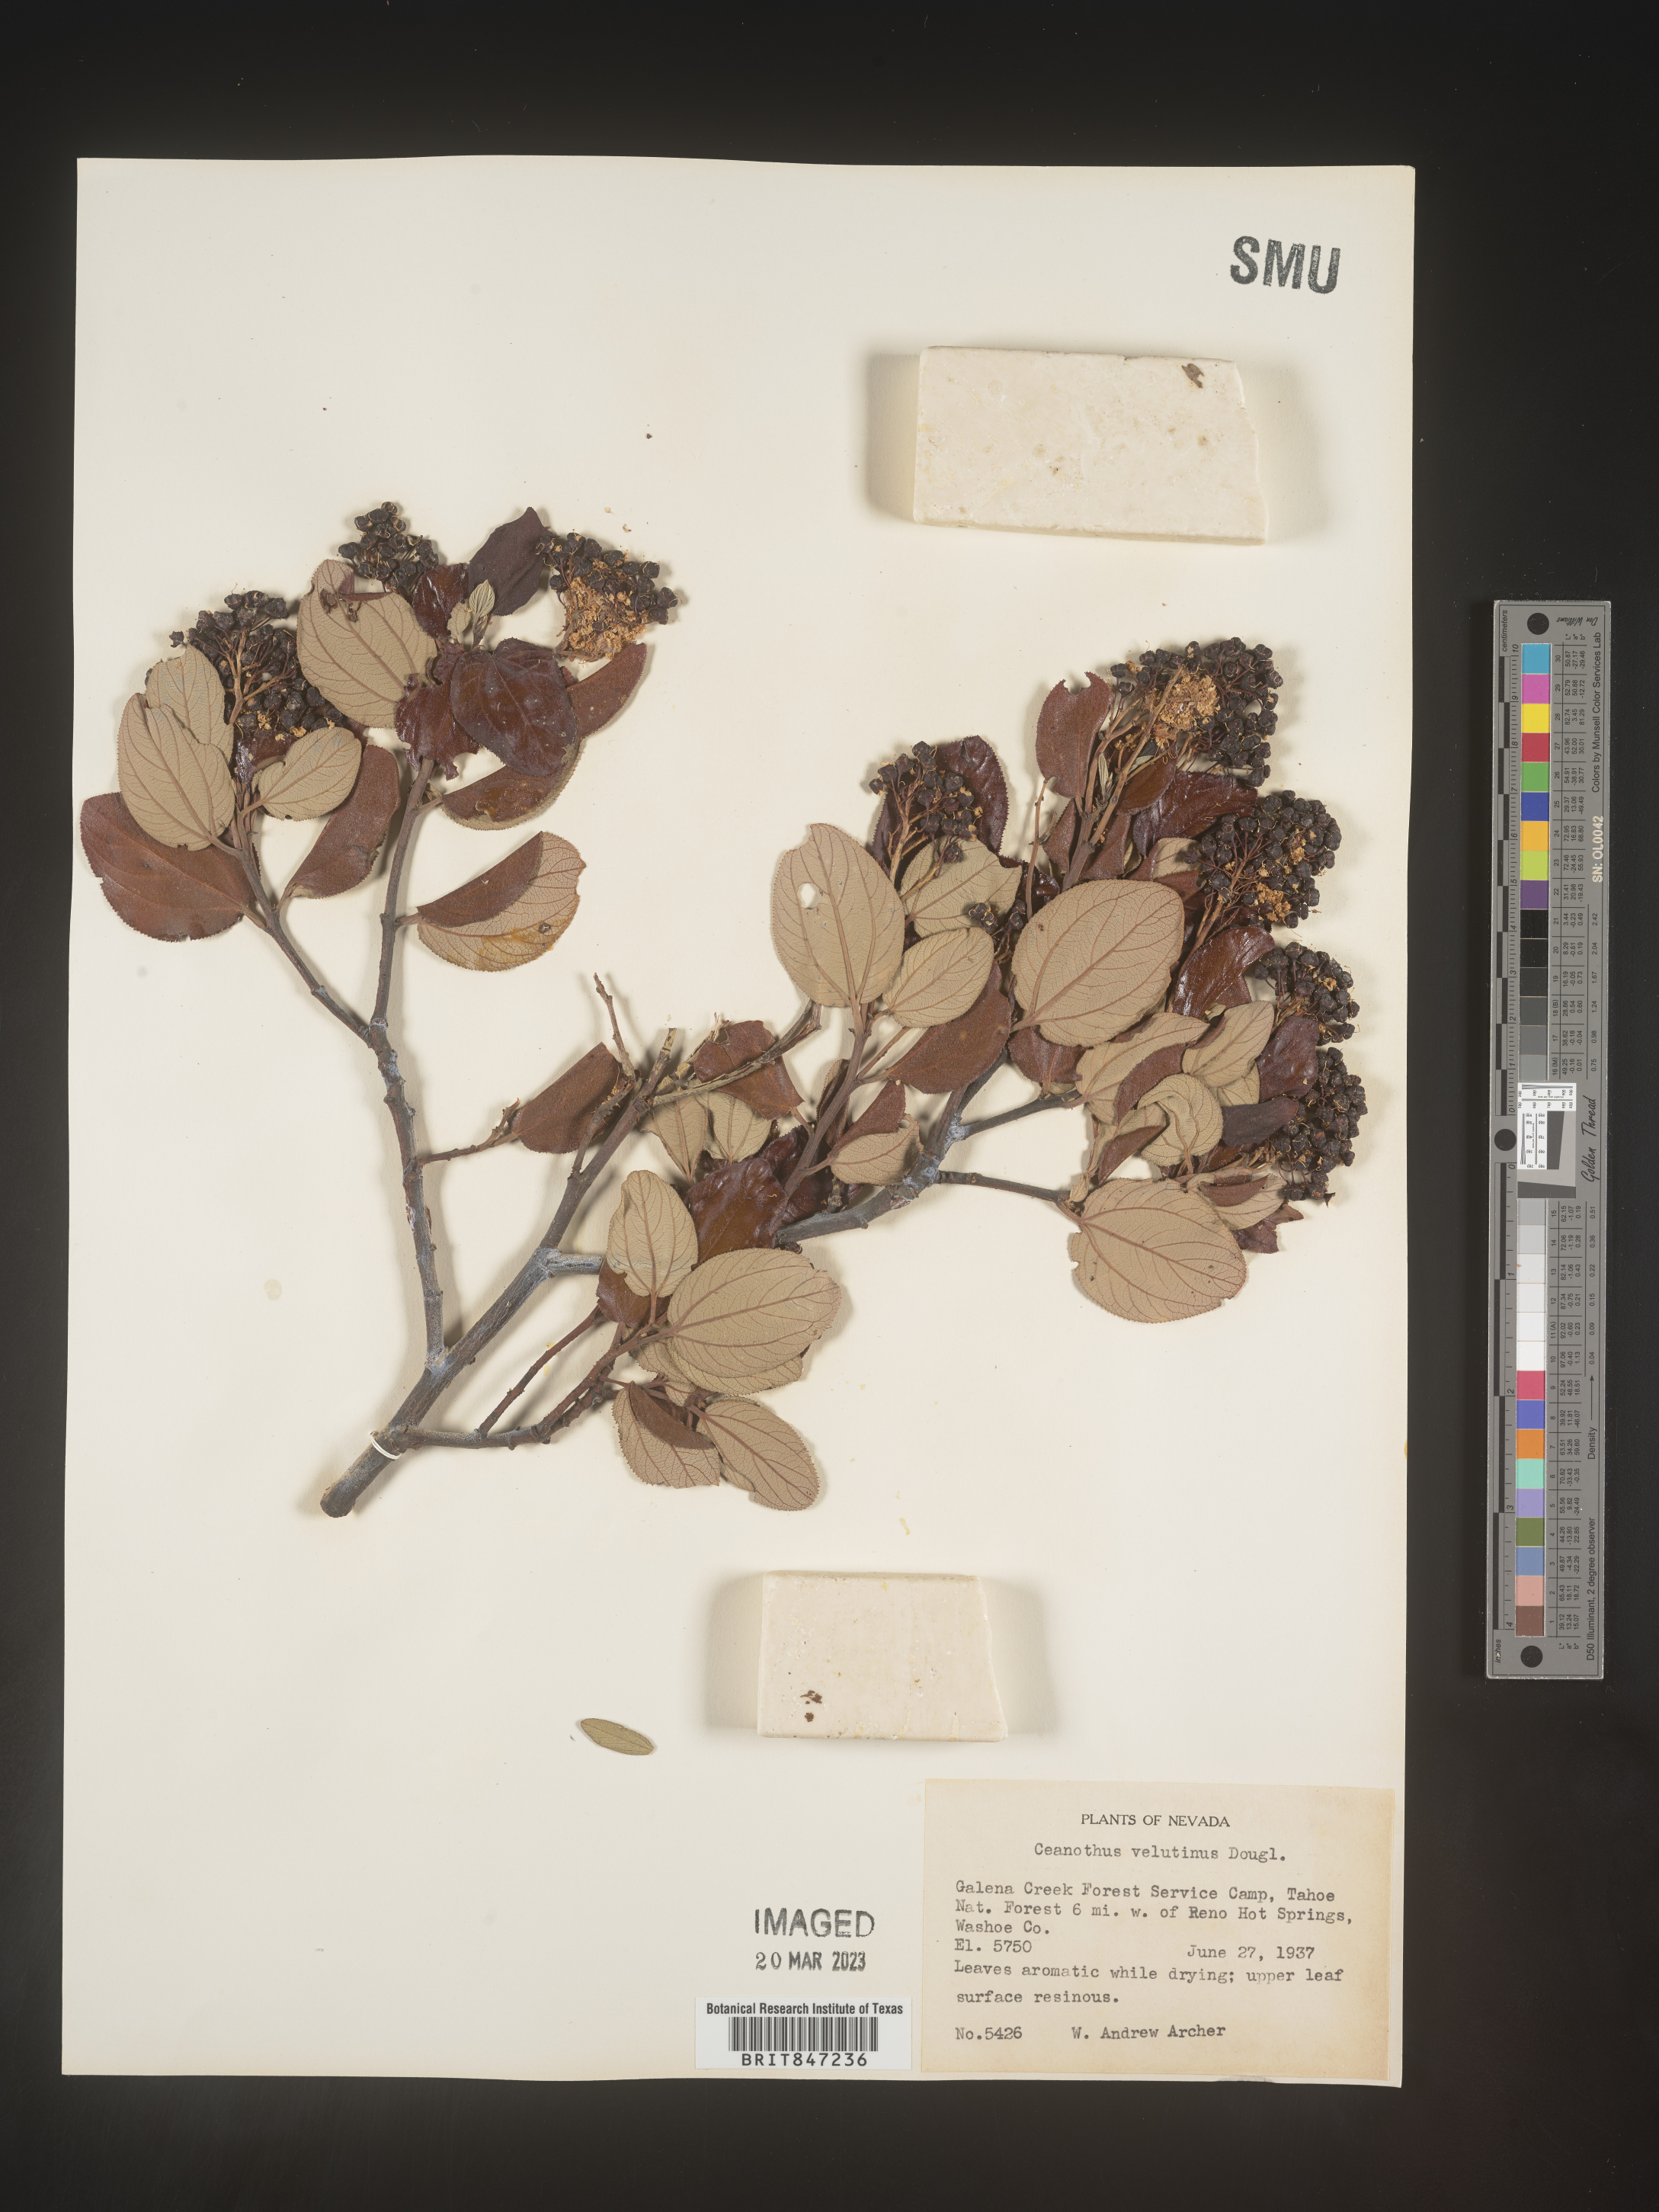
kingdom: Plantae
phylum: Tracheophyta
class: Magnoliopsida
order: Rosales
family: Rhamnaceae
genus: Ceanothus
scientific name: Ceanothus velutinus
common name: Snowbrush
